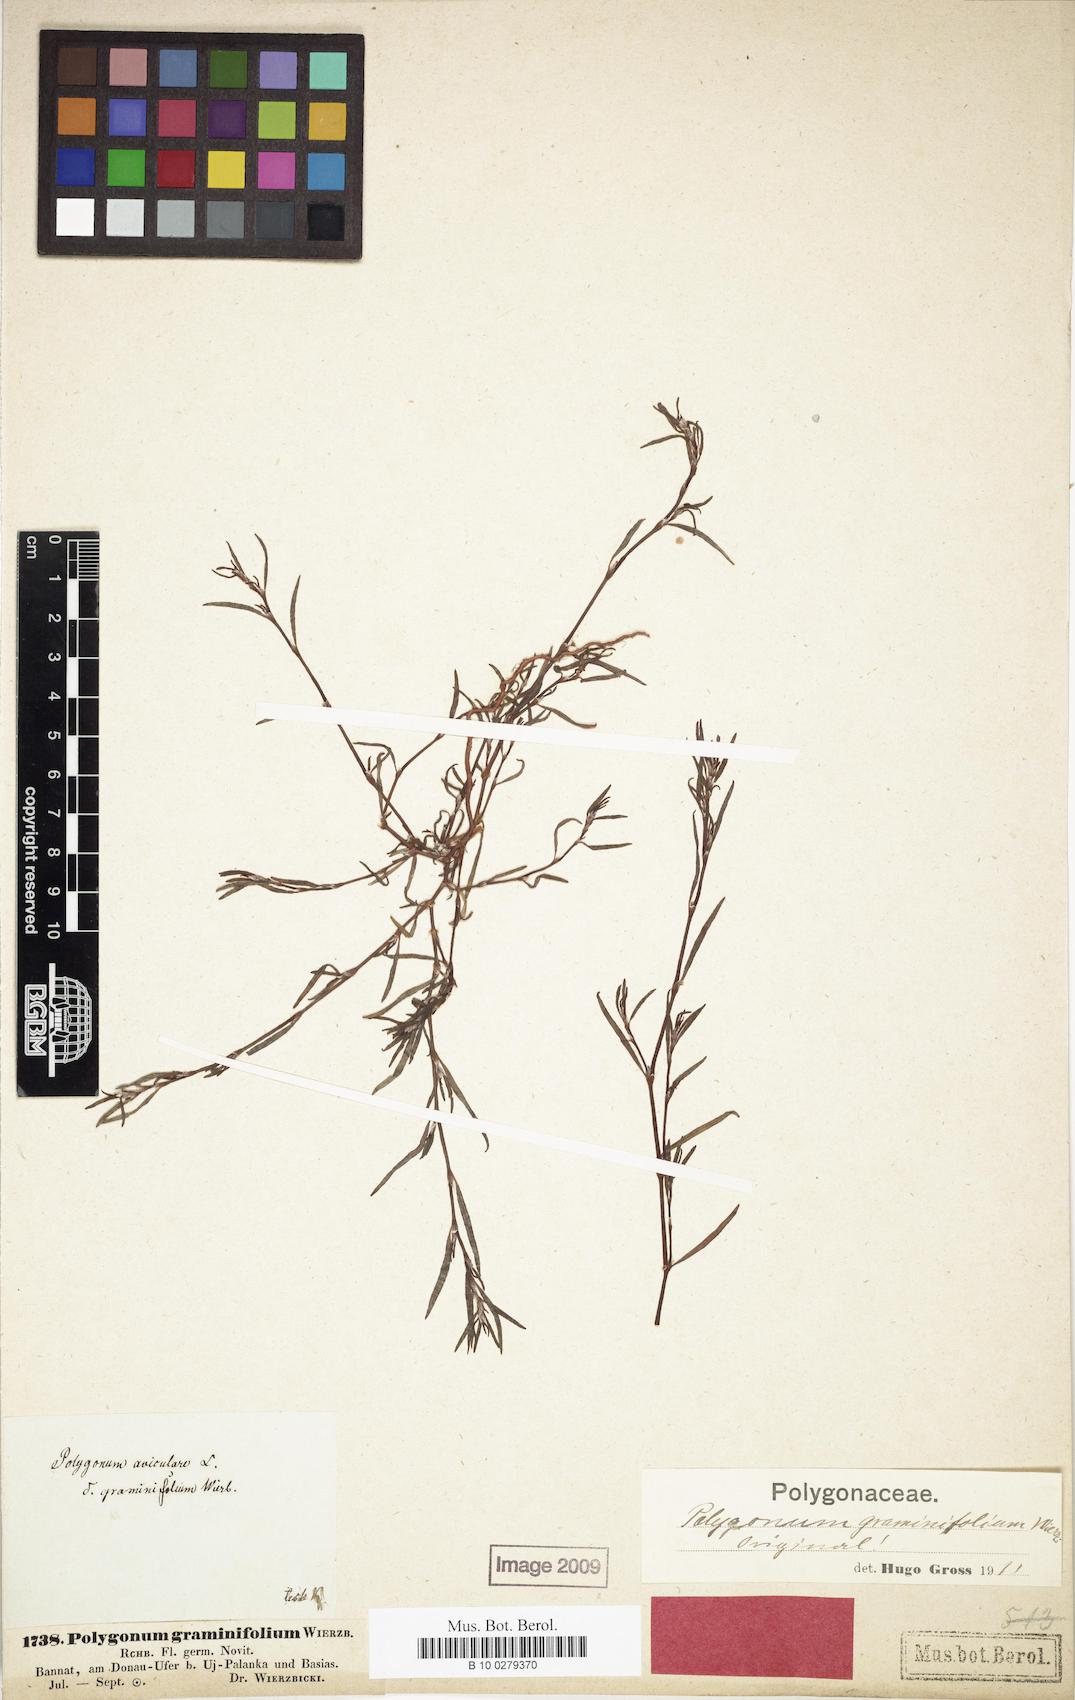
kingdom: Plantae
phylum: Tracheophyta
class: Magnoliopsida
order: Caryophyllales
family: Polygonaceae
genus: Persicaria
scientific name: Persicaria acuminata
